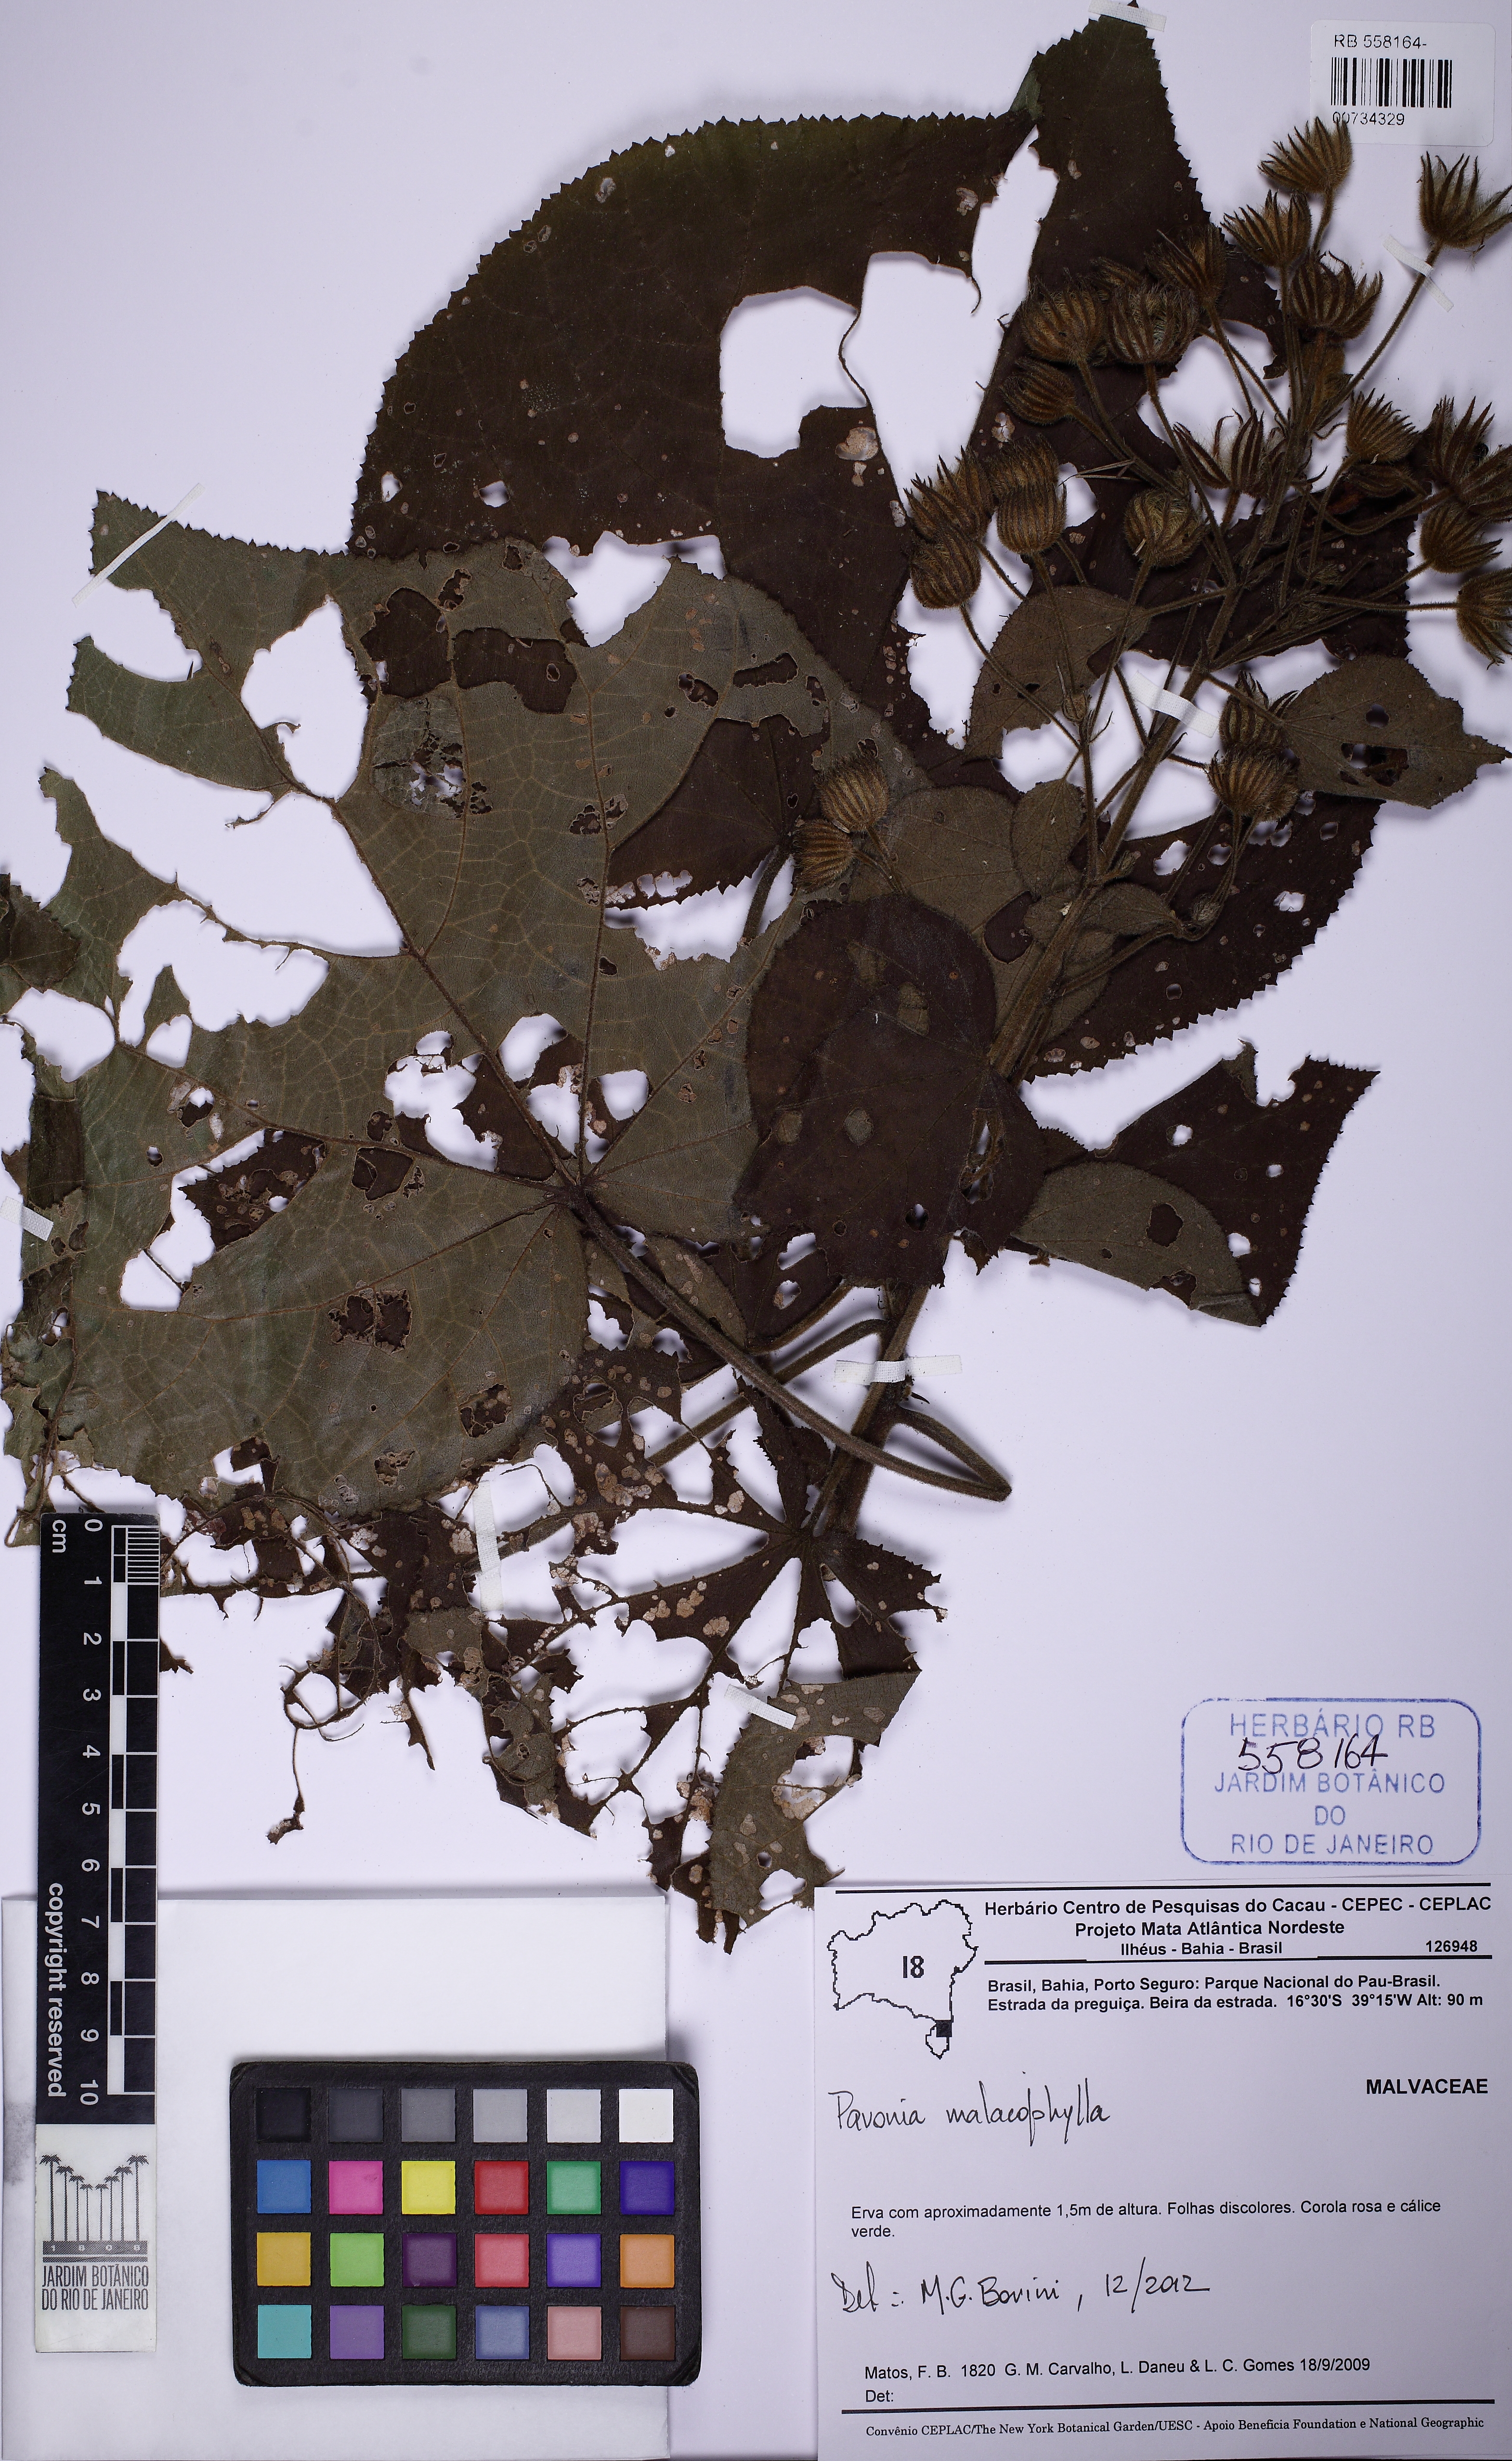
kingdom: Plantae
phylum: Tracheophyta
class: Magnoliopsida
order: Malvales
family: Malvaceae
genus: Pavonia
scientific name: Pavonia malacophylla
